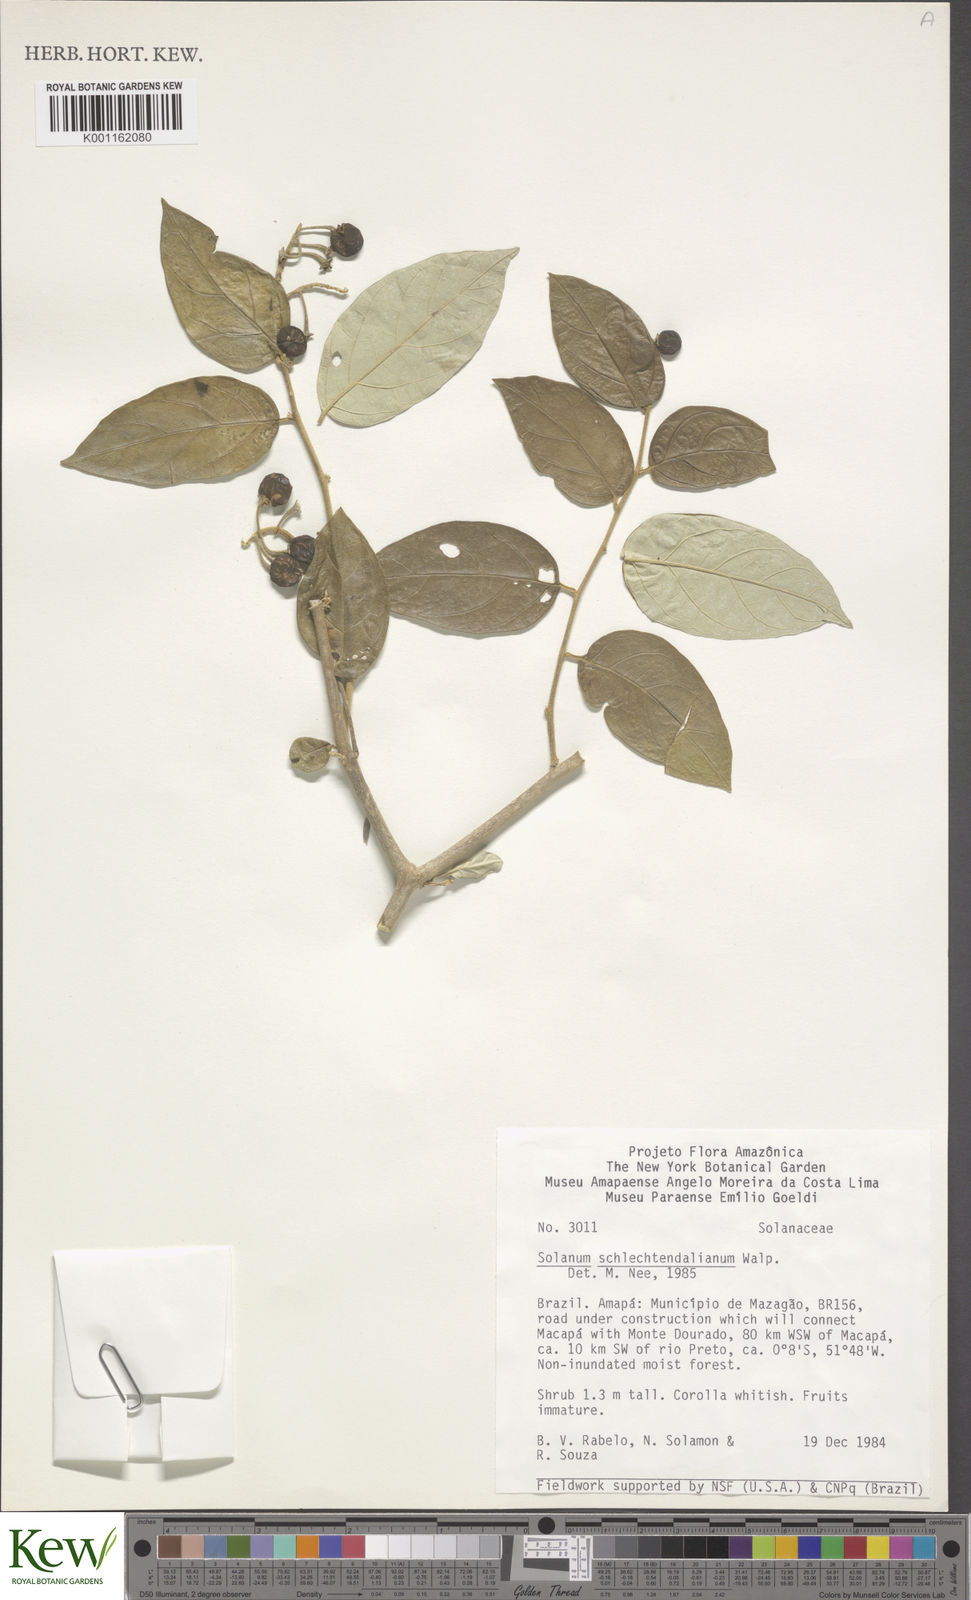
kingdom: Plantae
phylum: Tracheophyta
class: Magnoliopsida
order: Solanales
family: Solanaceae
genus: Solanum
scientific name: Solanum schlechtendalianum
